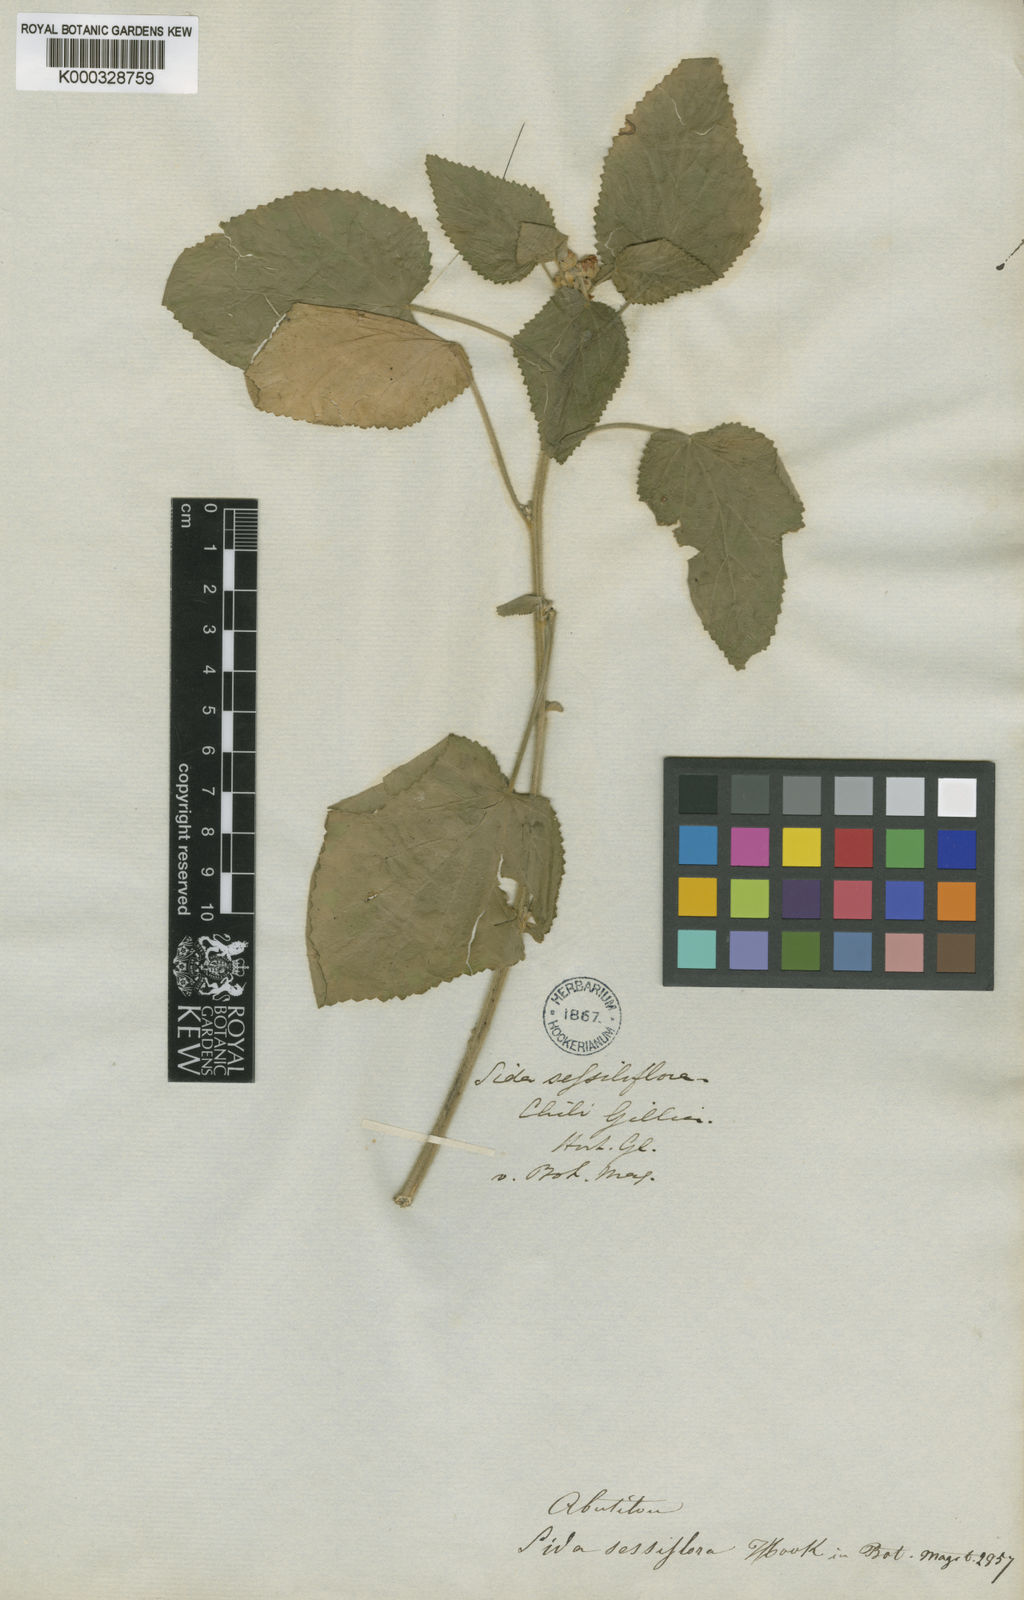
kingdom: Plantae
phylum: Tracheophyta
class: Magnoliopsida
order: Malvales
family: Malvaceae
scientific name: Malvaceae
